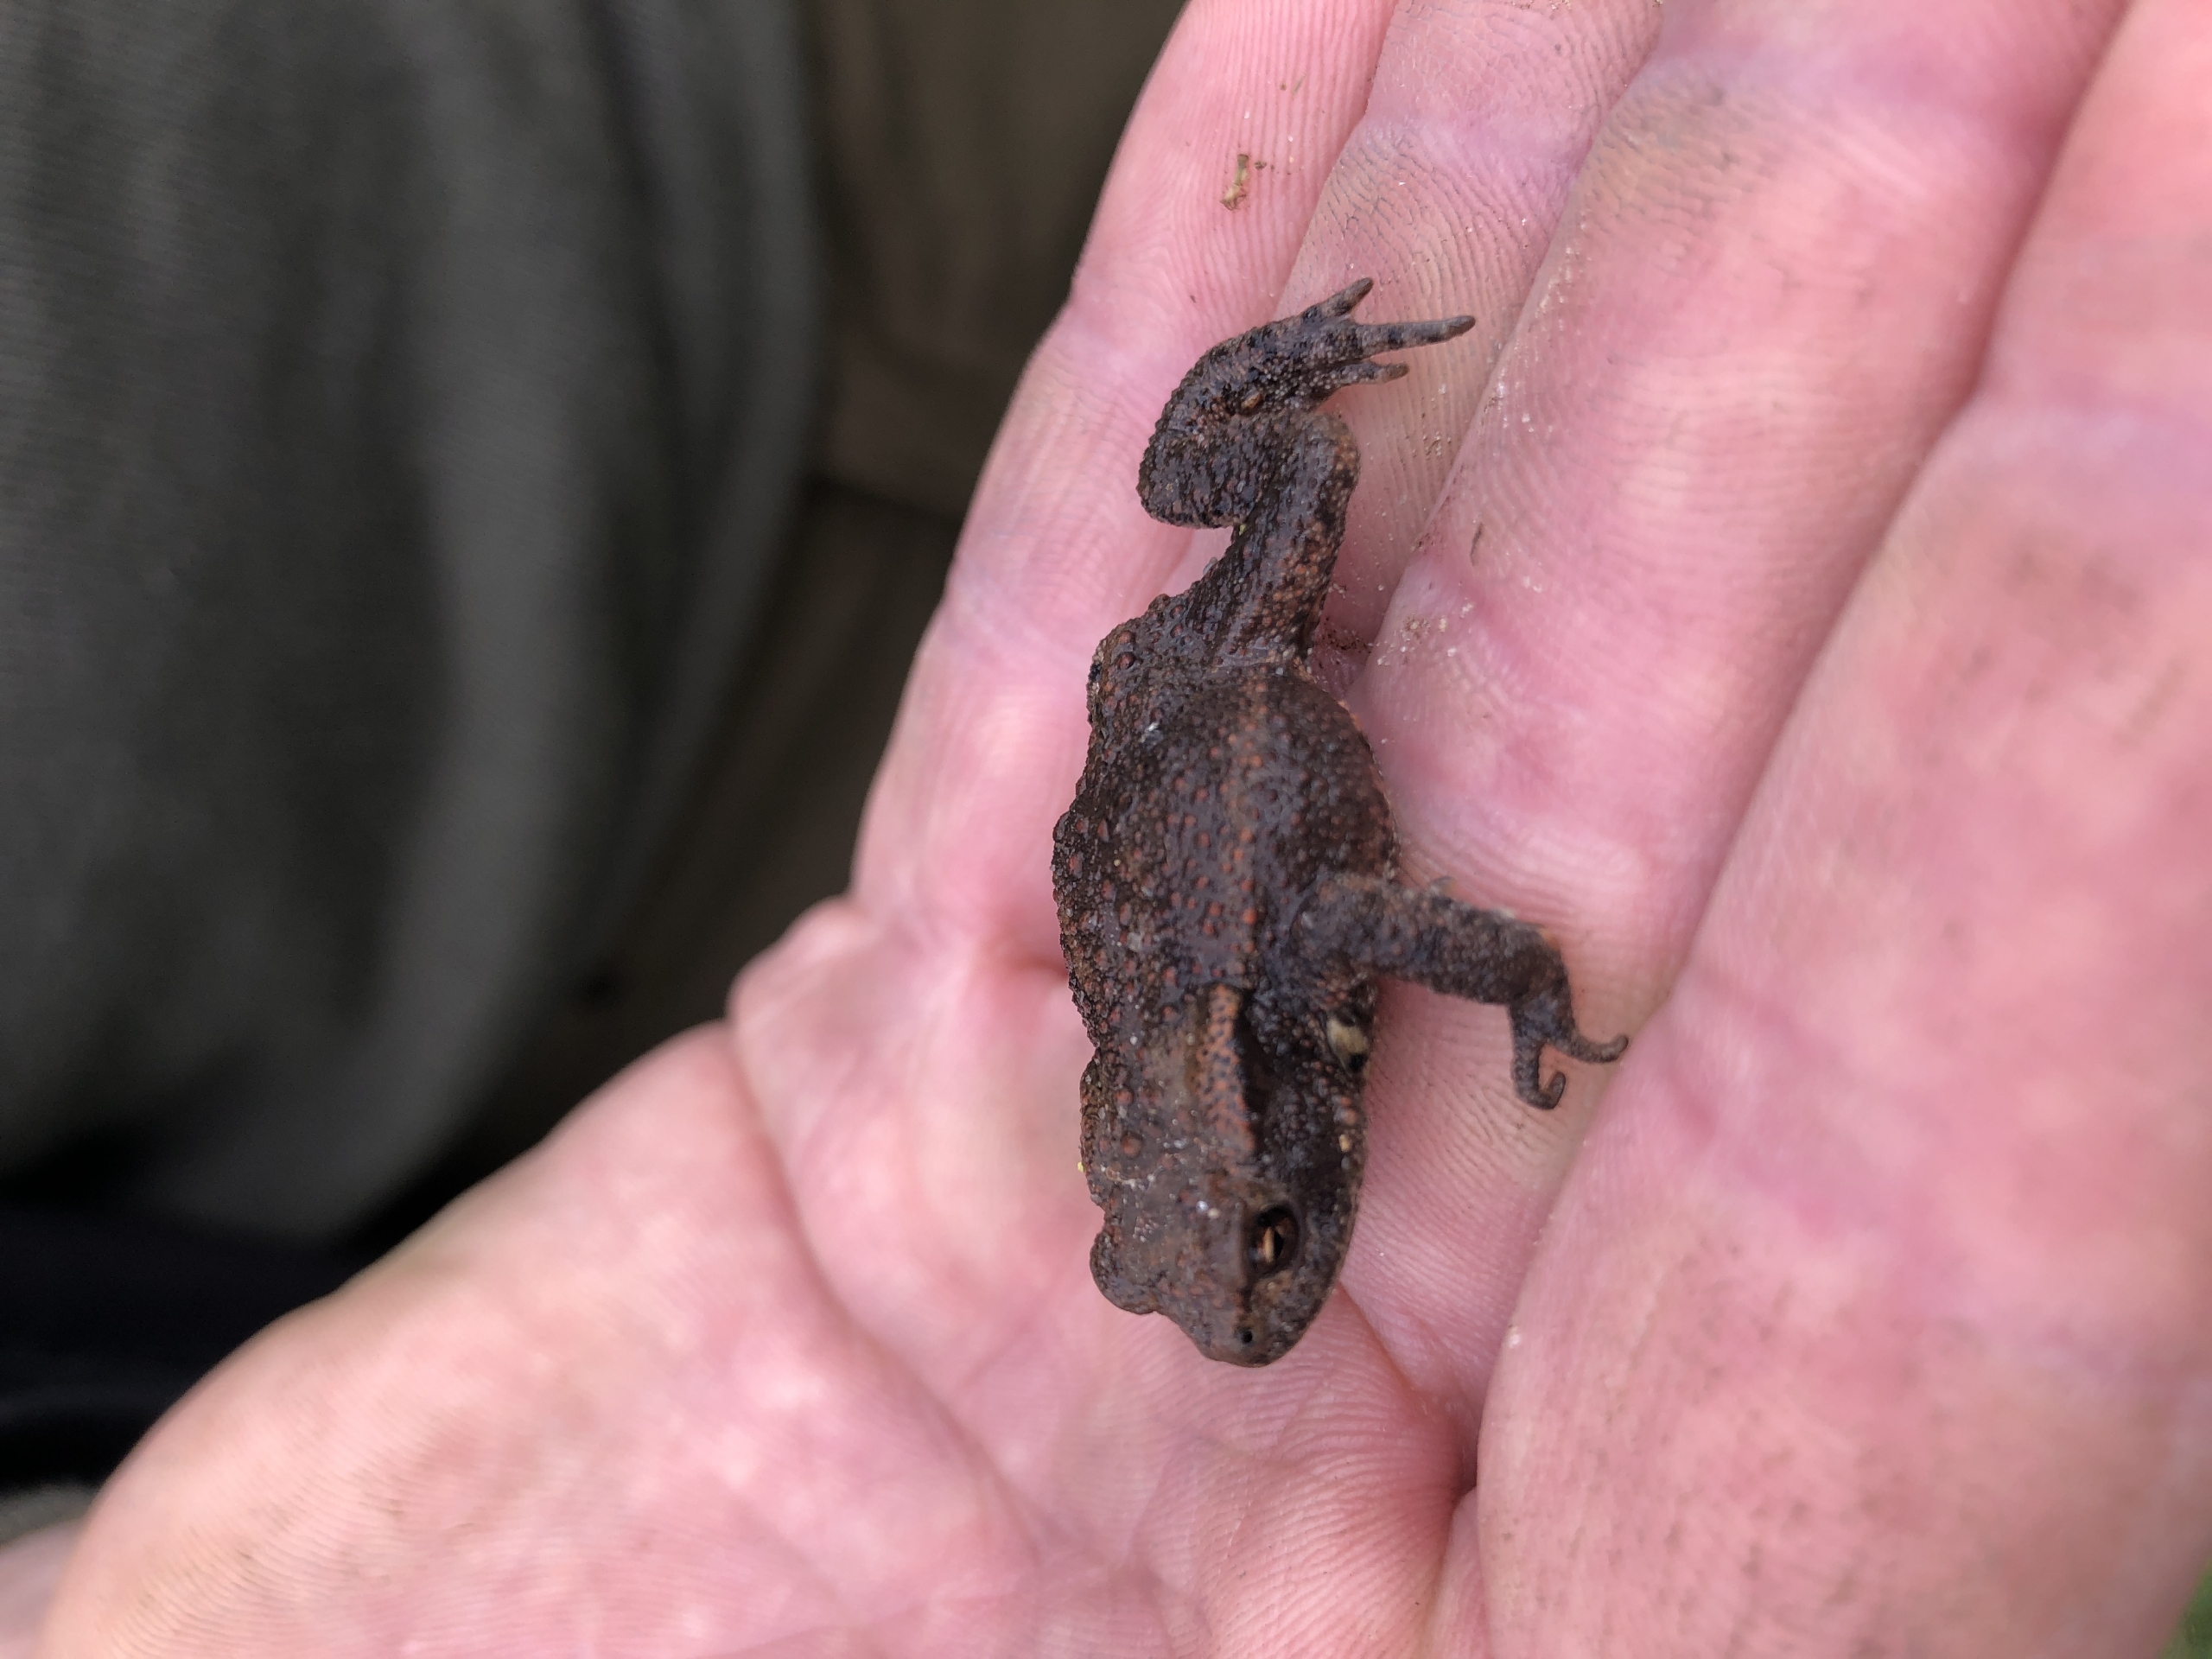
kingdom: Animalia
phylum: Chordata
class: Amphibia
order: Anura
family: Bufonidae
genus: Bufo
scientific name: Bufo bufo
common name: Skrubtudse
